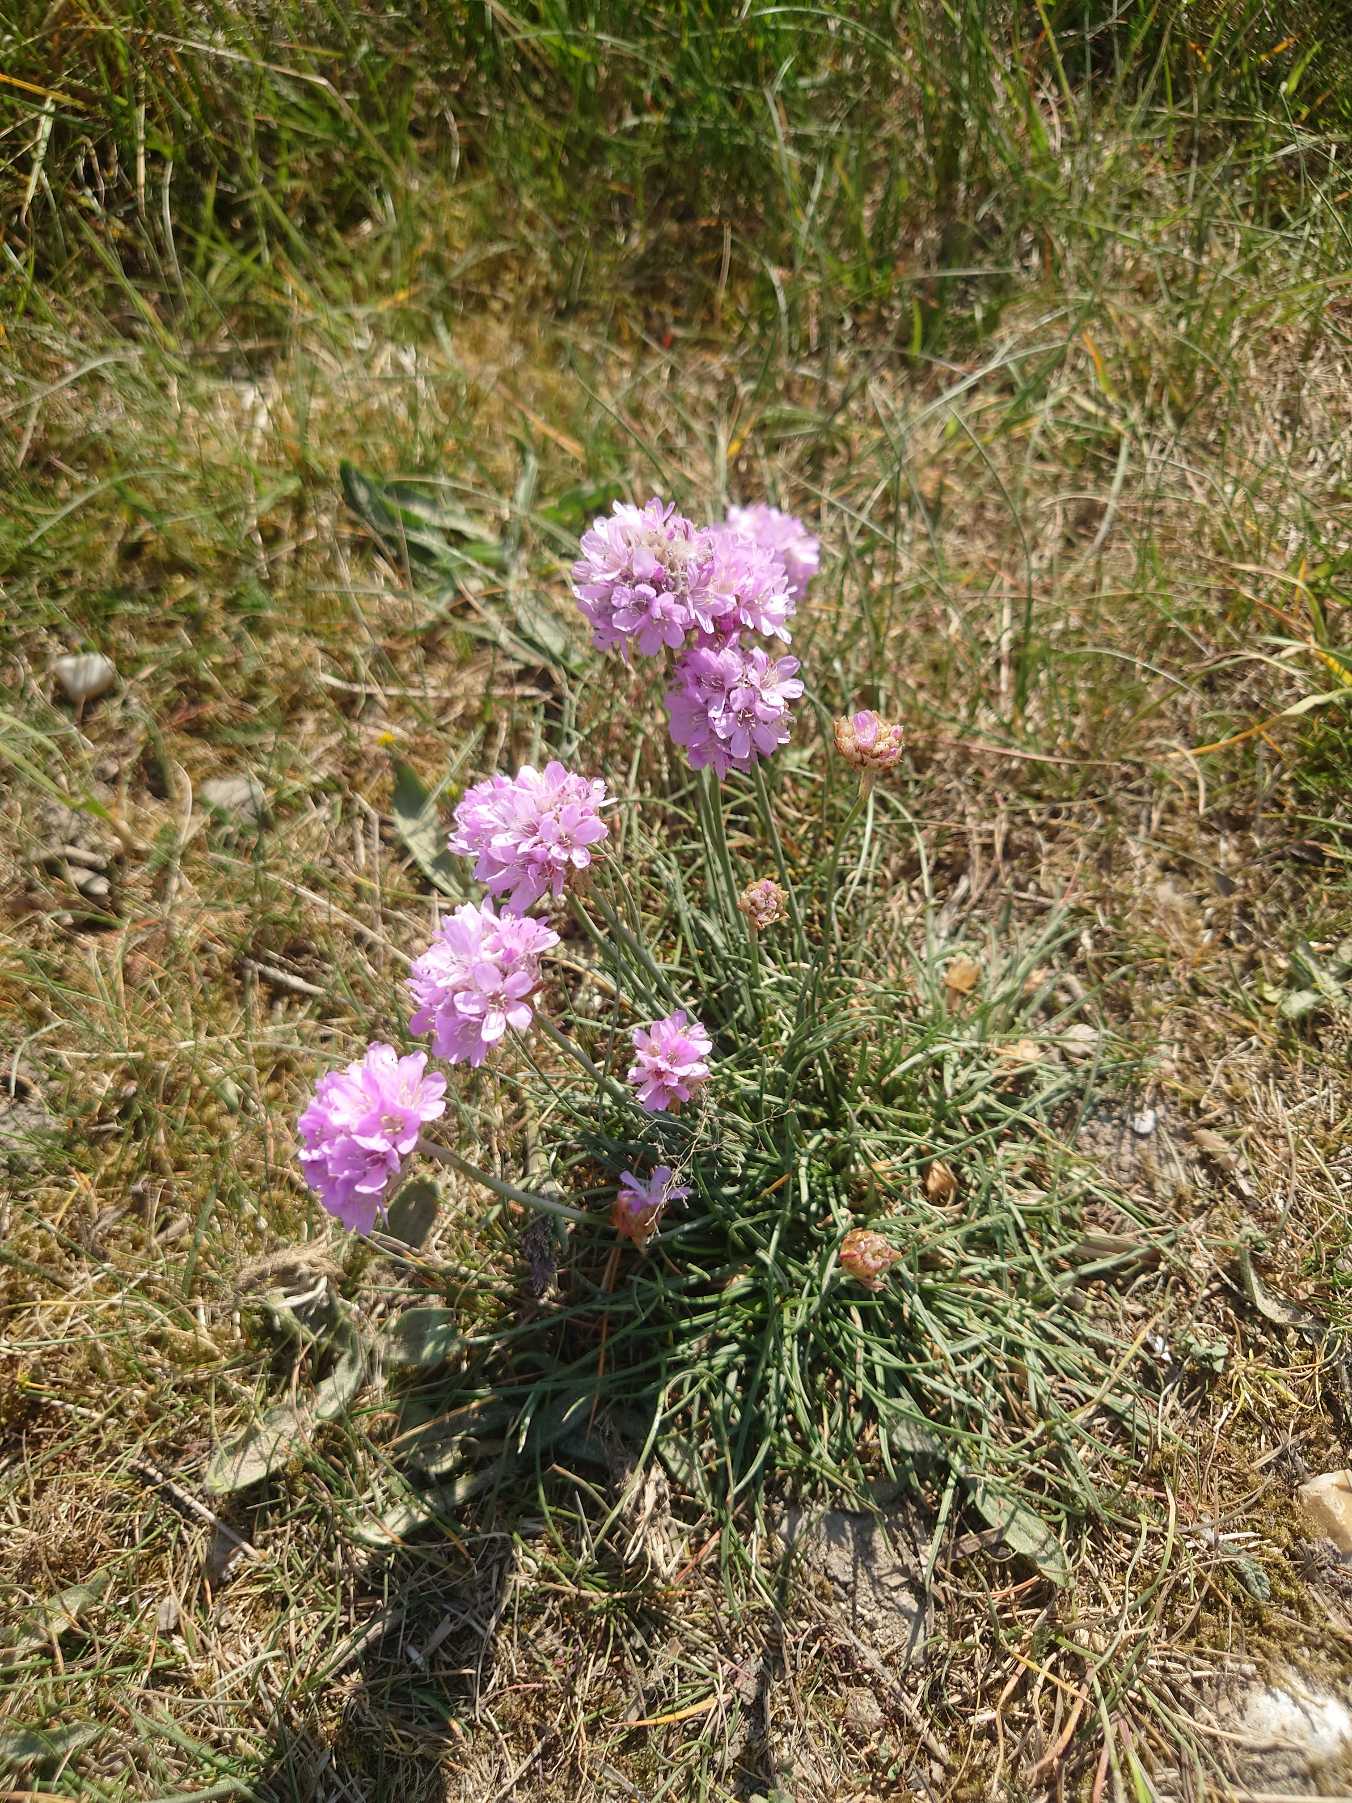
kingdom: Plantae
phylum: Tracheophyta
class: Magnoliopsida
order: Caryophyllales
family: Plumbaginaceae
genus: Armeria
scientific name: Armeria maritima
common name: Engelskgræs
